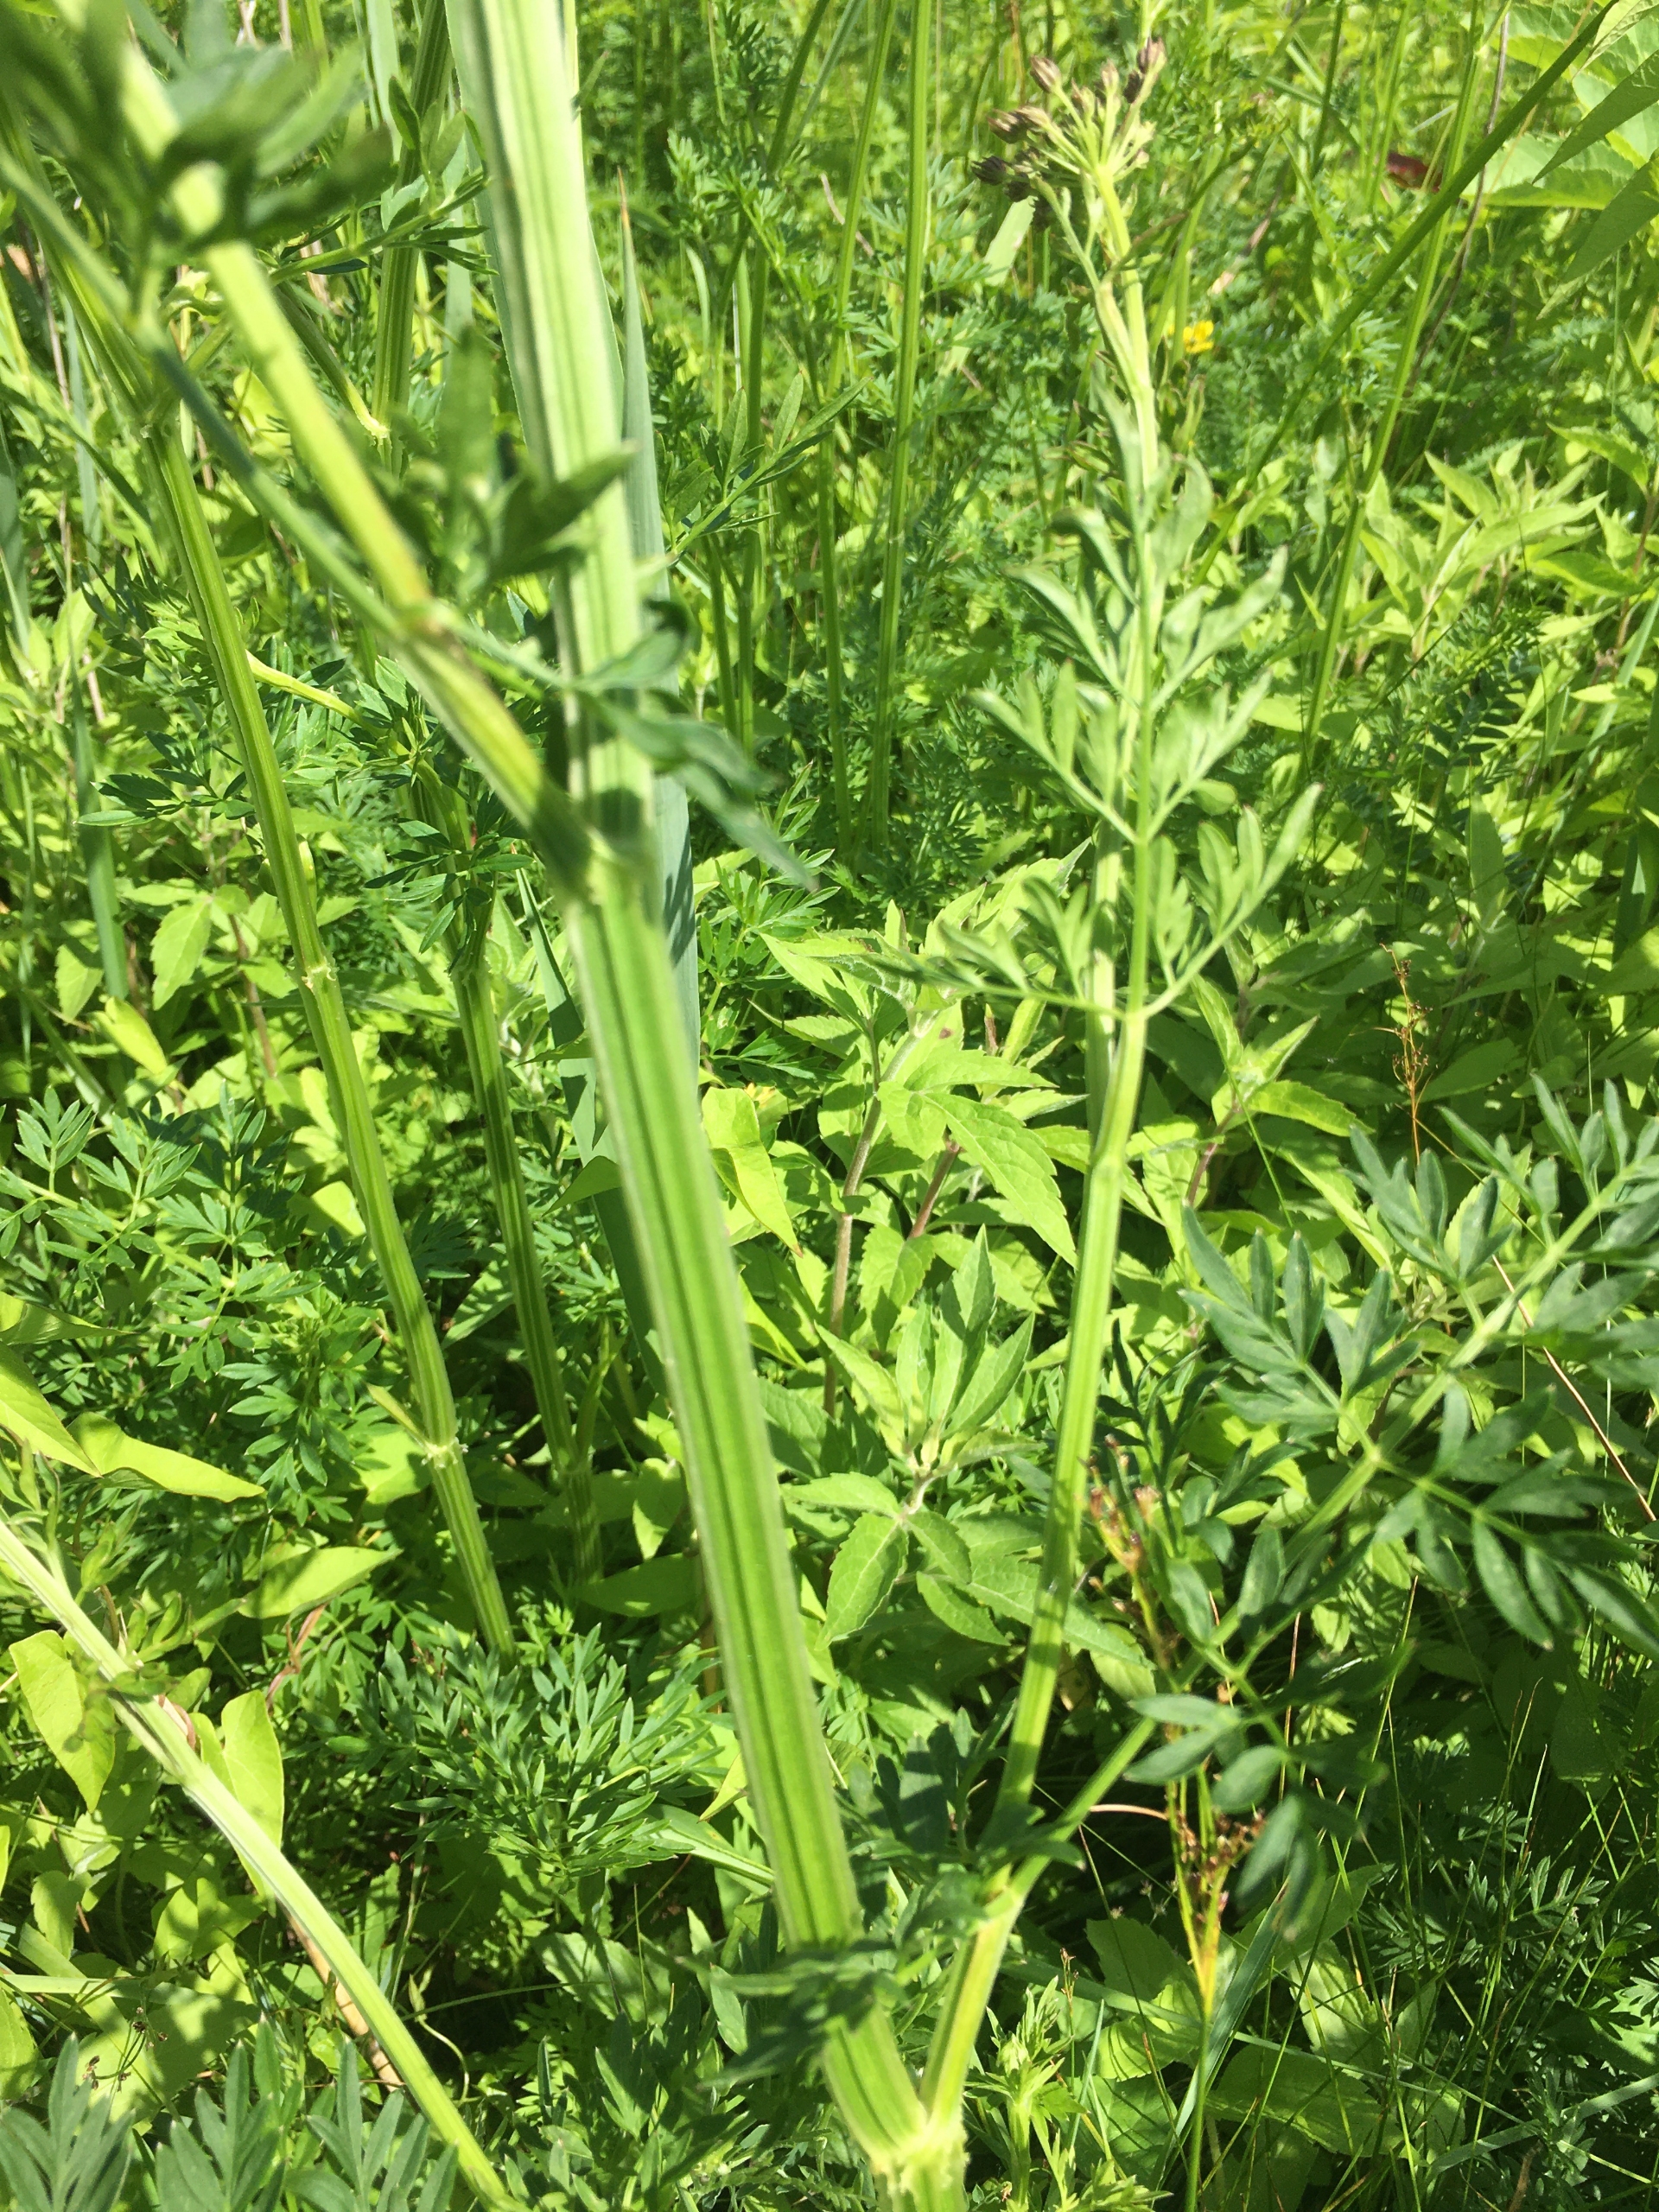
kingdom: Plantae
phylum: Tracheophyta
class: Magnoliopsida
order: Apiales
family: Apiaceae
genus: Selinum
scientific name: Selinum carvifolia
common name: Seline
